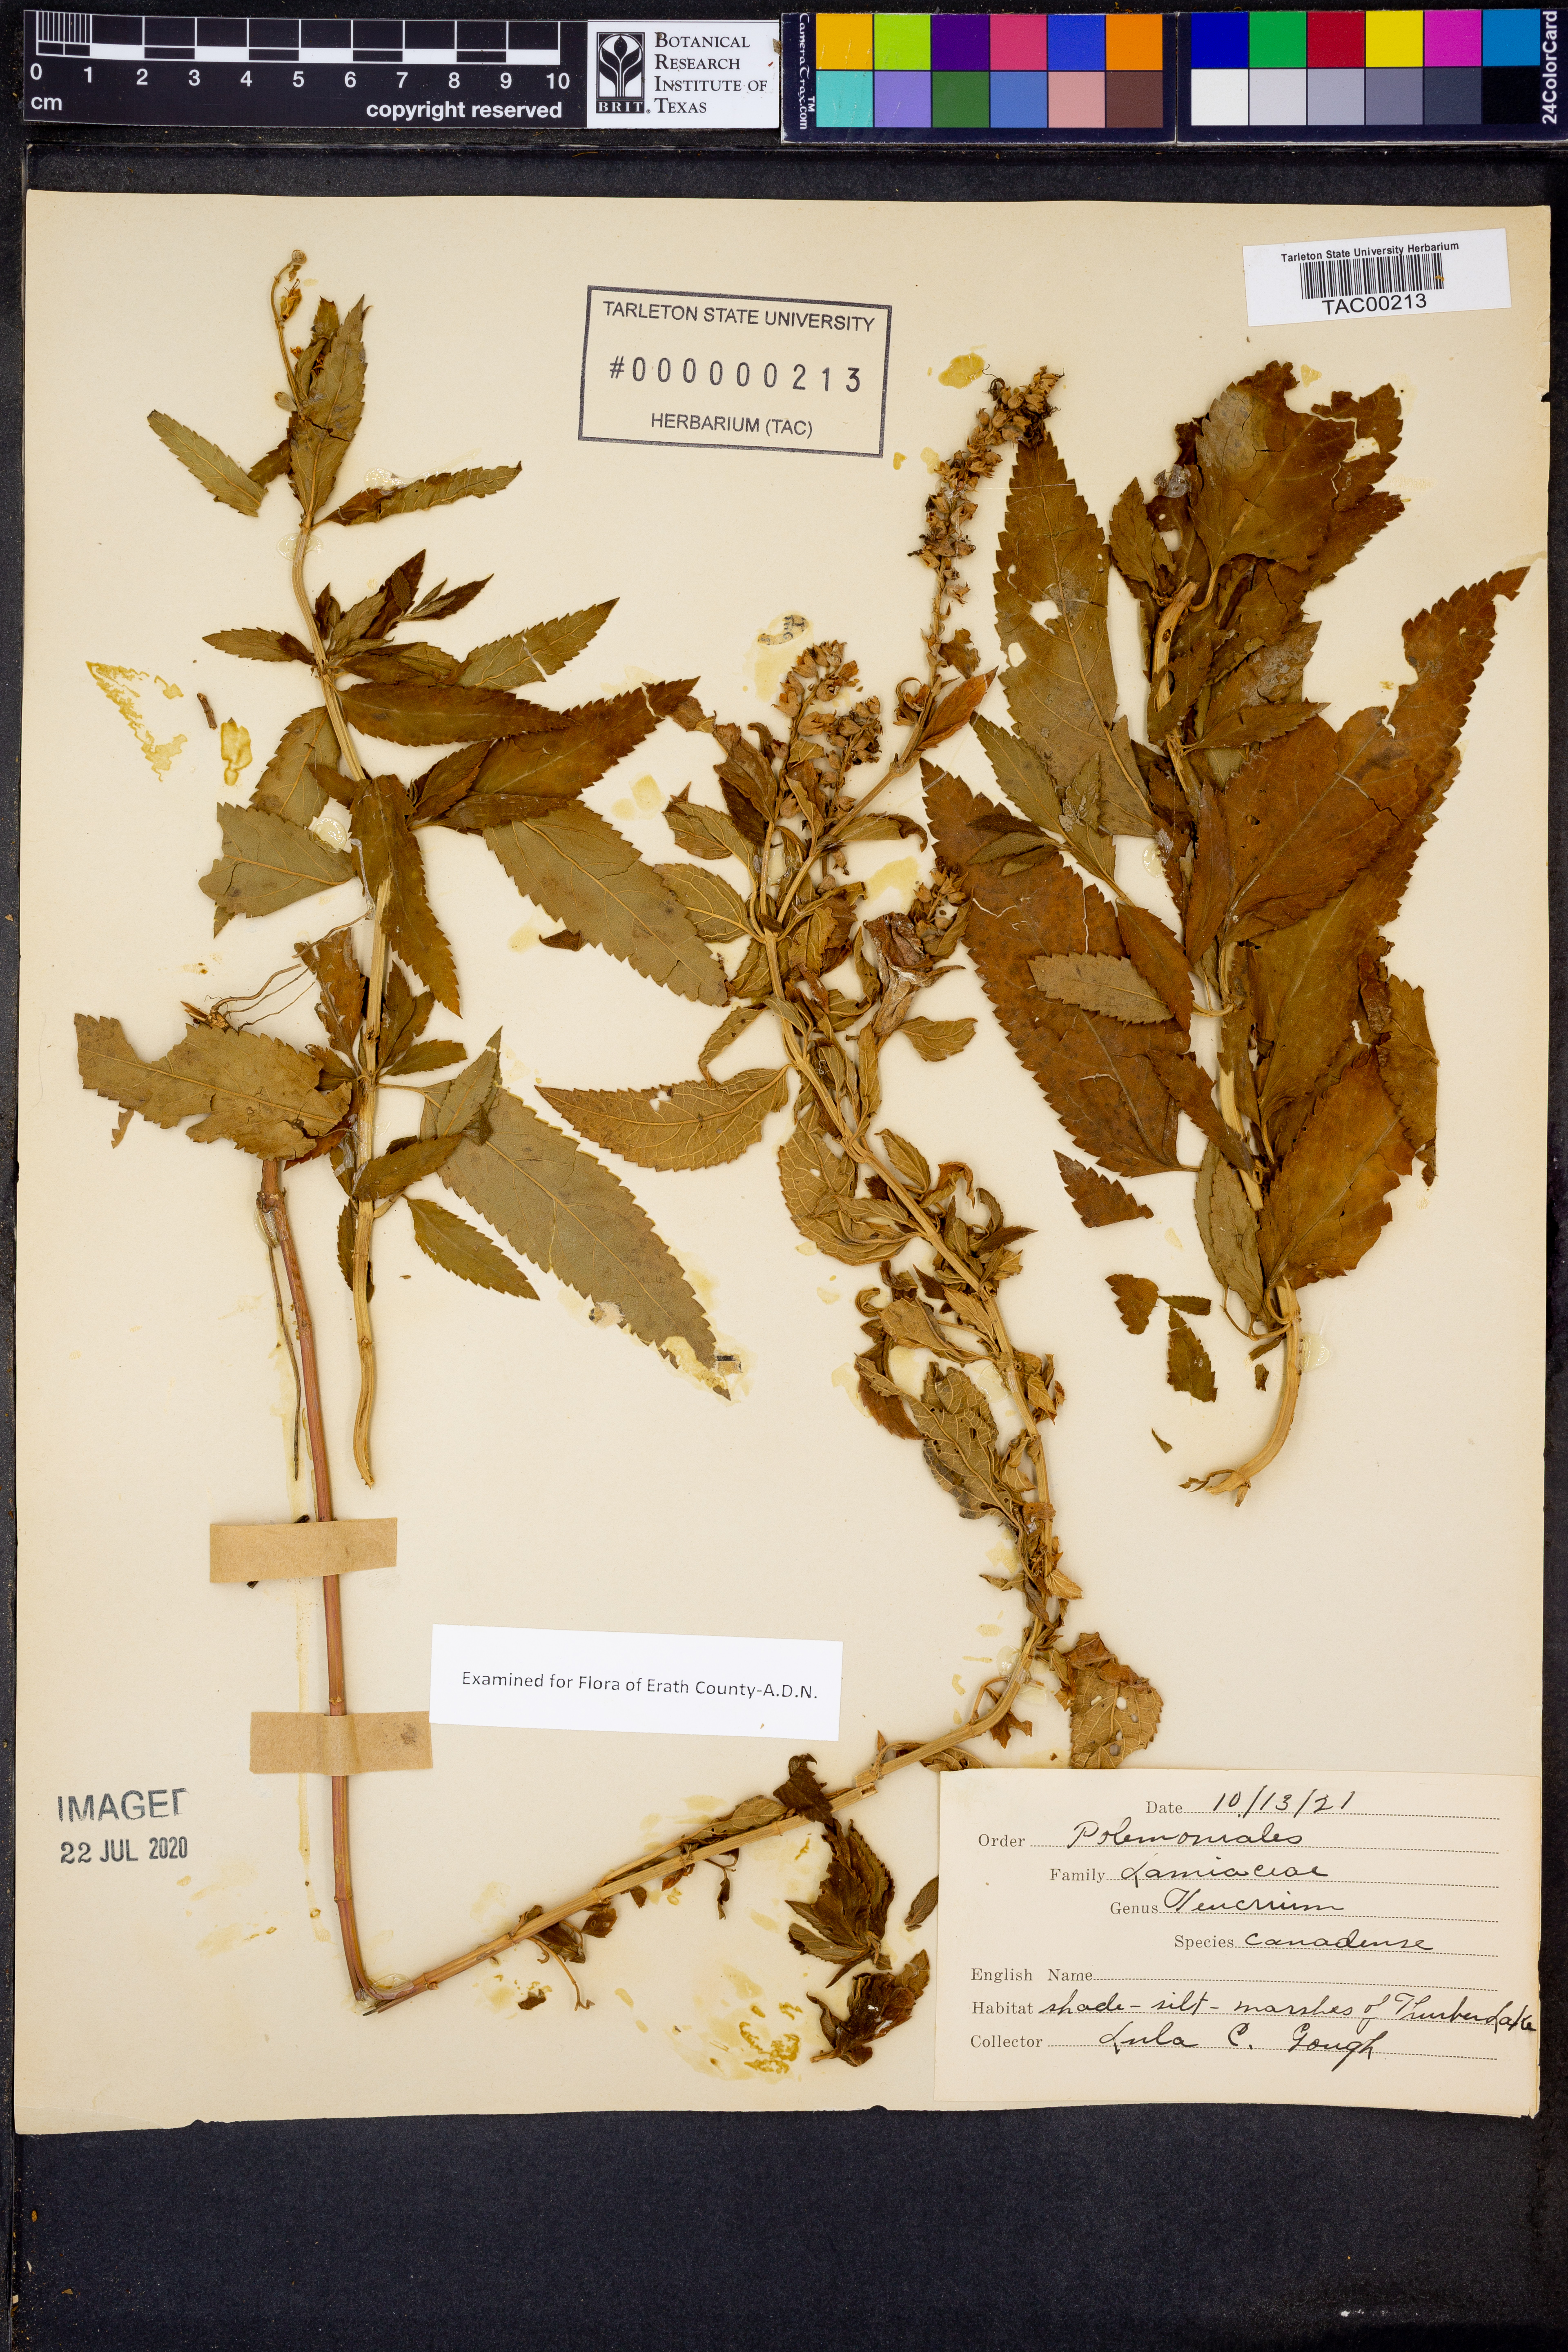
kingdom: Plantae
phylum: Tracheophyta
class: Magnoliopsida
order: Lamiales
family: Lamiaceae
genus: Teucrium
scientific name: Teucrium canadense
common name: American germander
